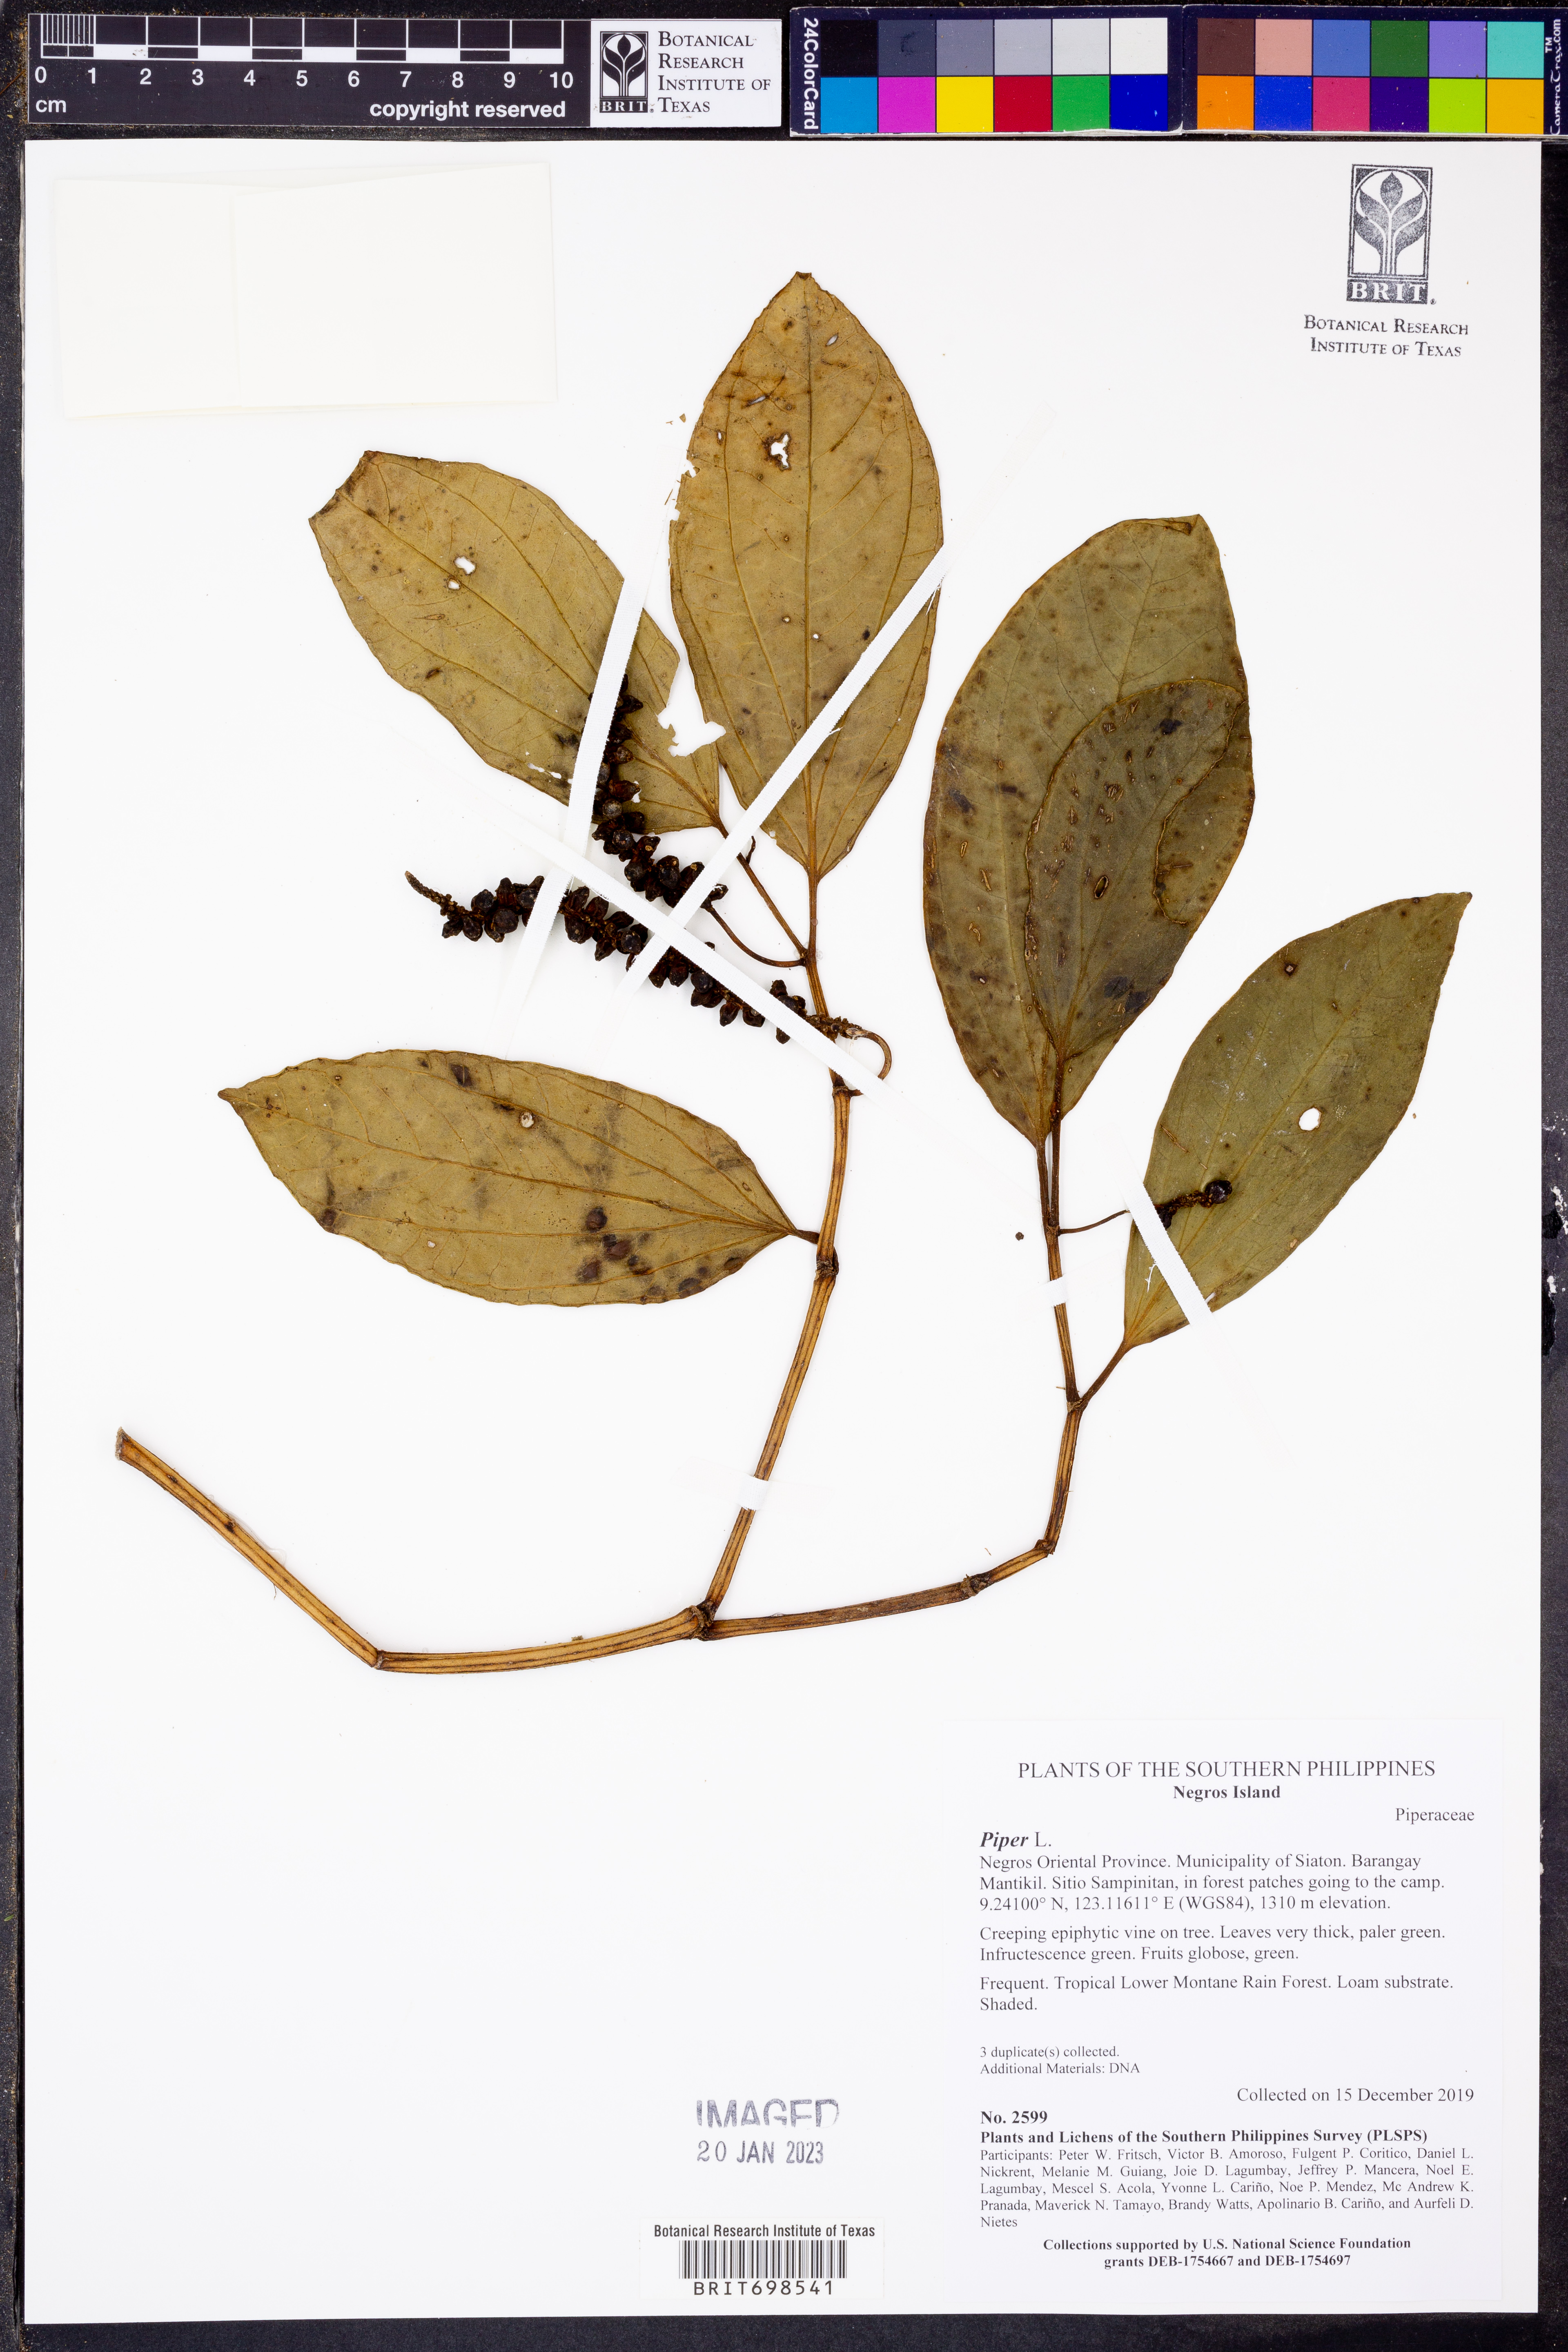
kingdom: Plantae
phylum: Tracheophyta
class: Magnoliopsida
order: Piperales
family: Piperaceae
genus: Piper
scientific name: Piper
